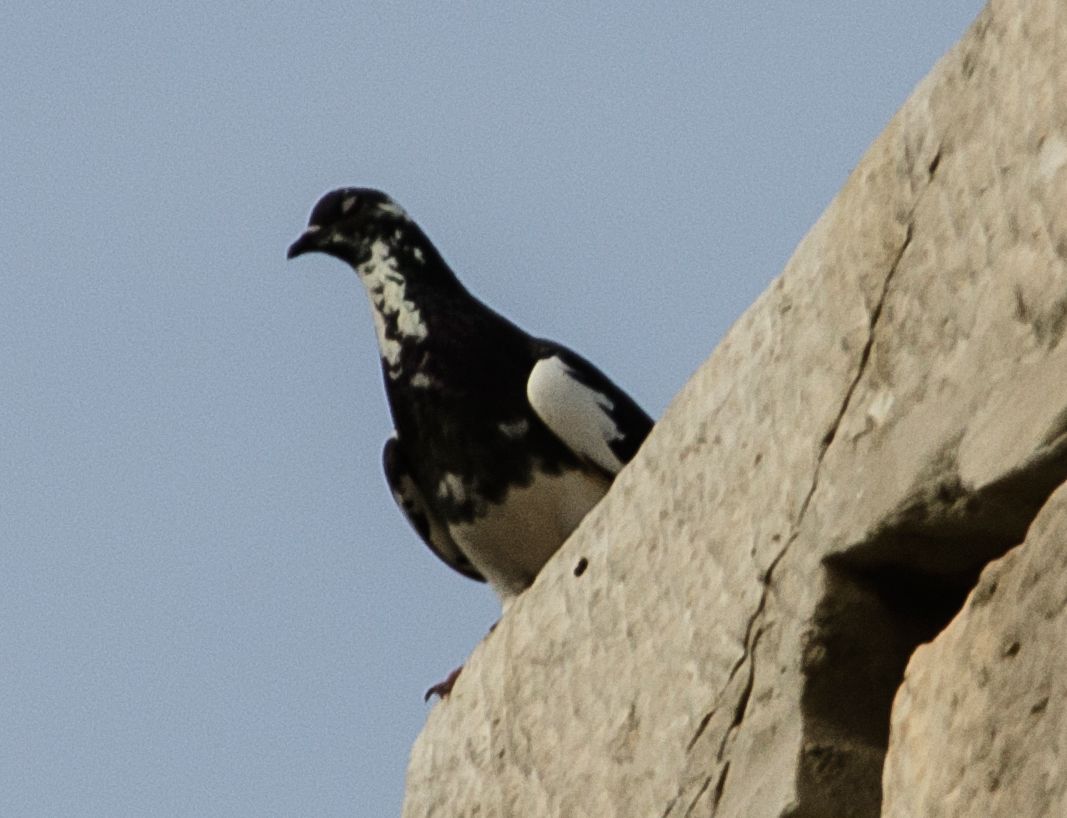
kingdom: Animalia
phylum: Chordata
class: Aves
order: Columbiformes
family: Columbidae
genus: Columba
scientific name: Columba livia
